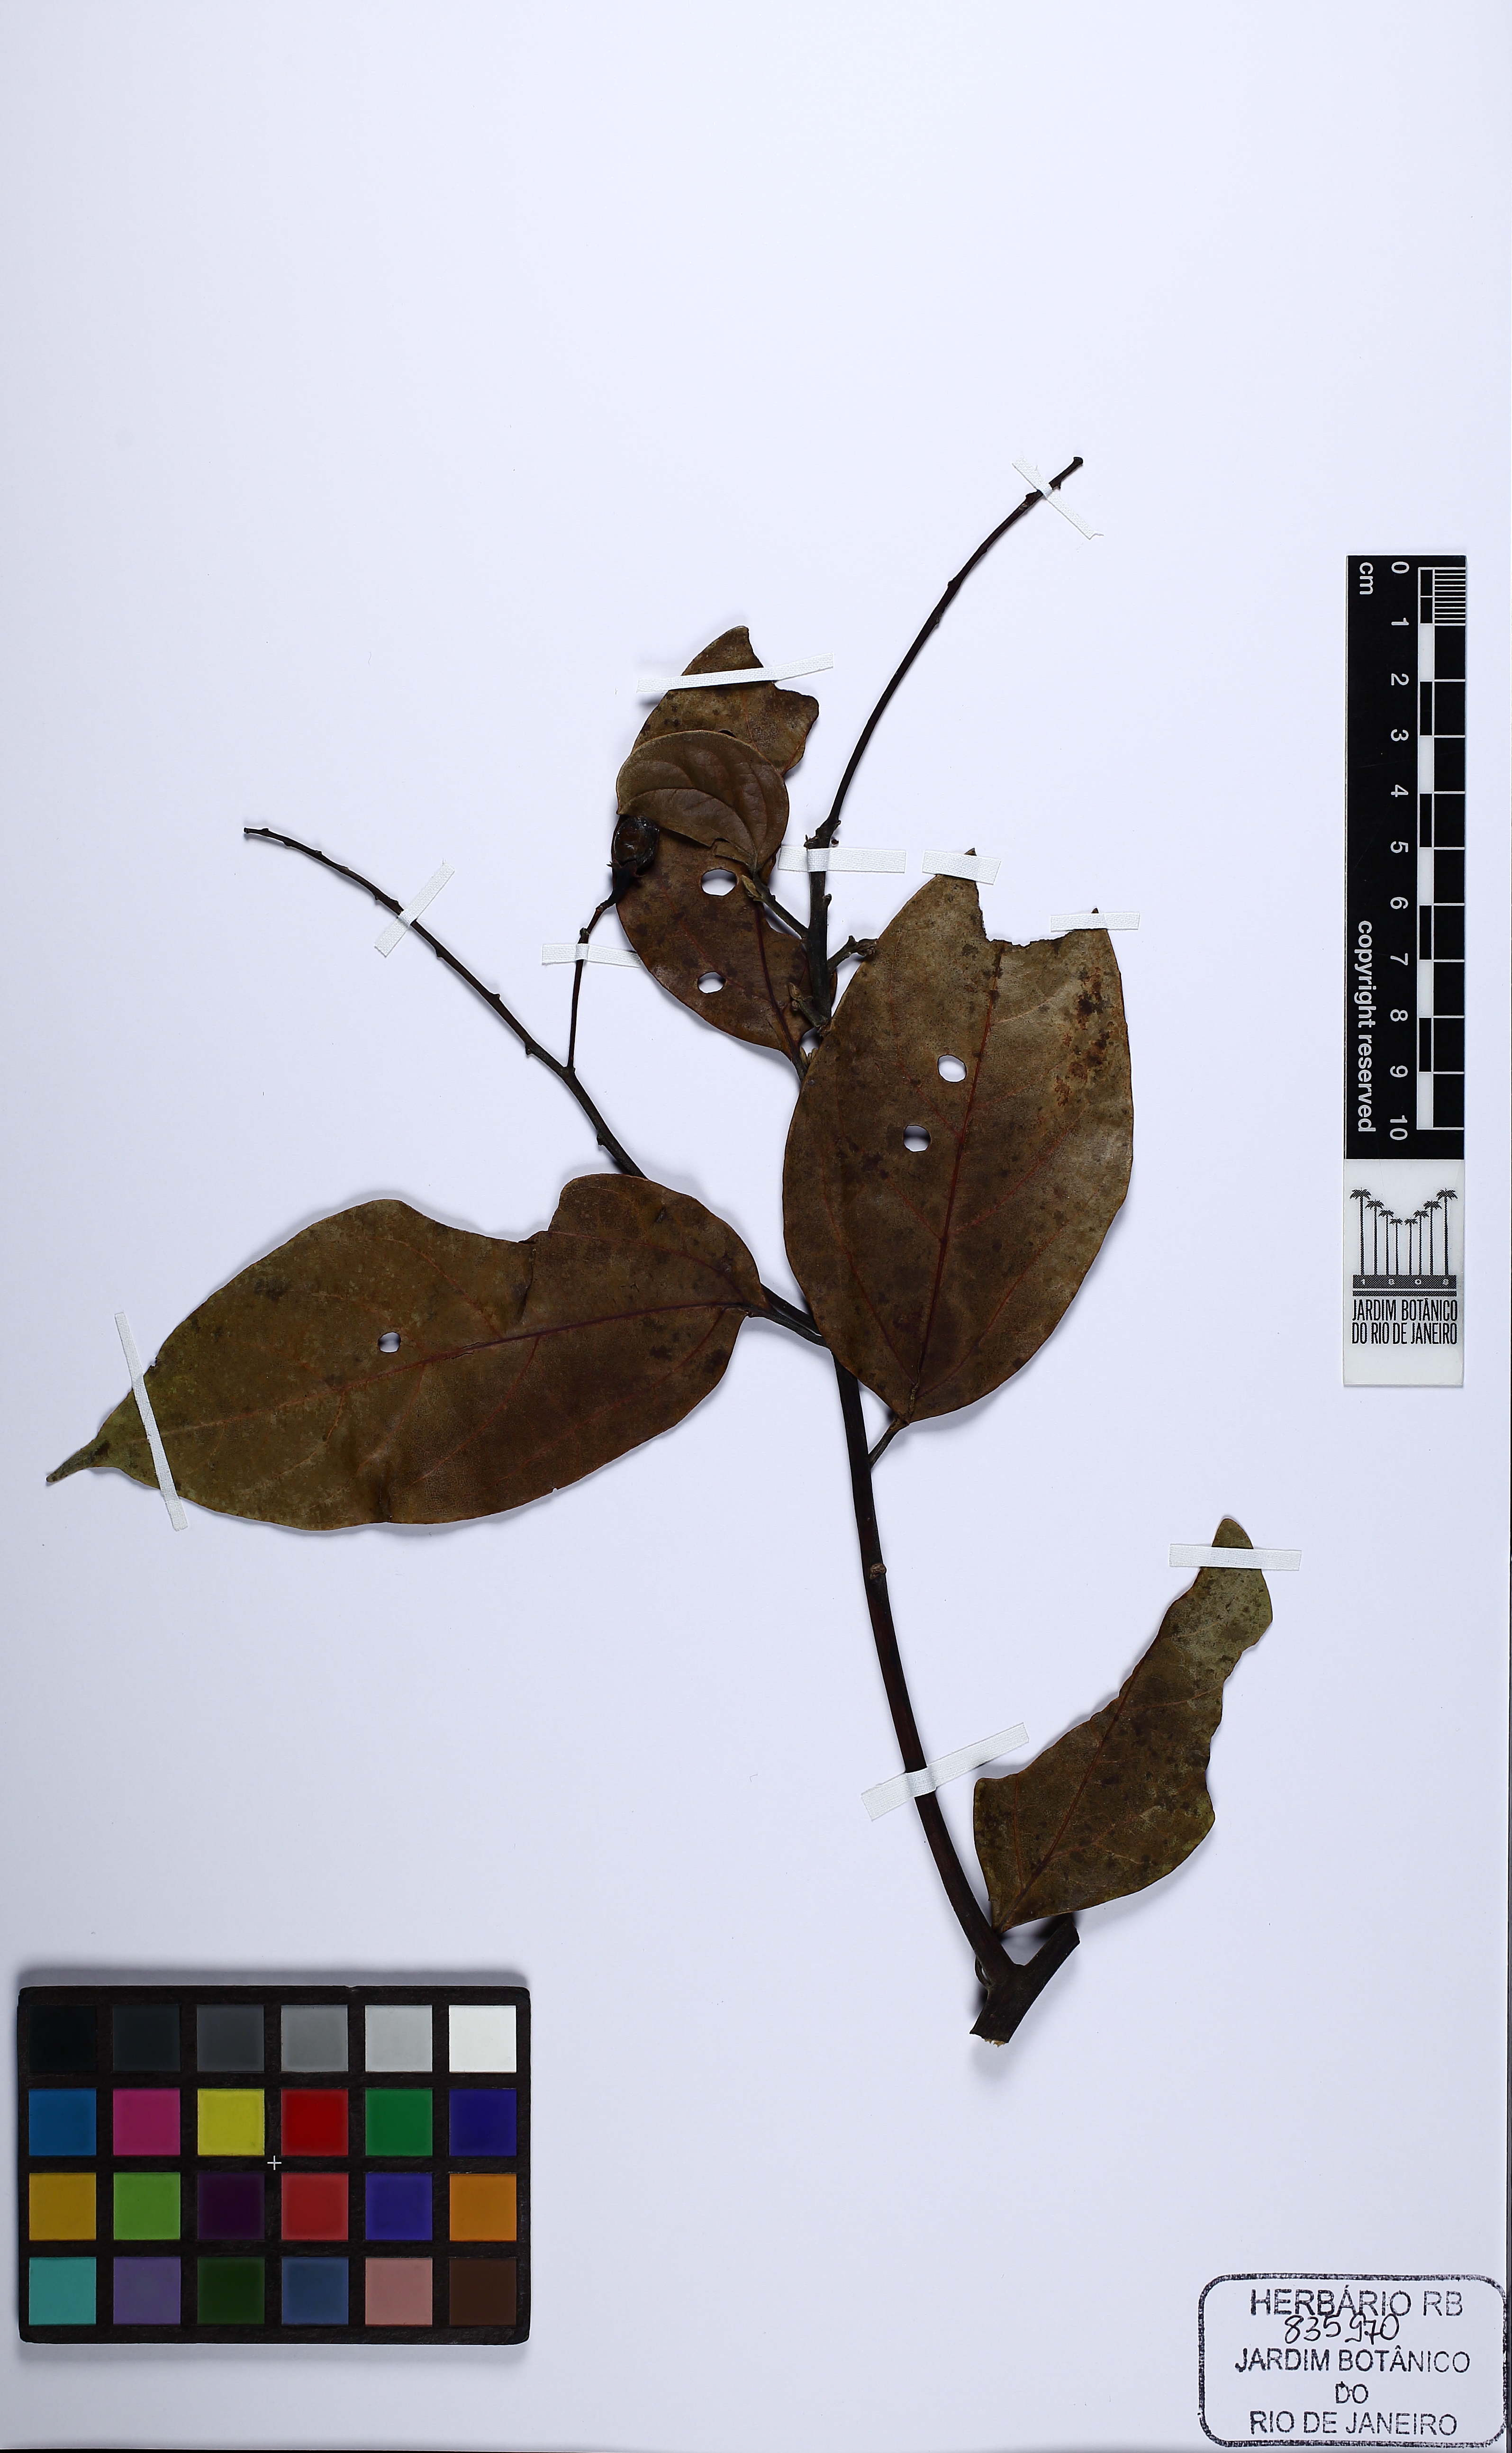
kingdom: Plantae
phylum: Tracheophyta
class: Magnoliopsida
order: Laurales
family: Lauraceae
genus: Aiouea
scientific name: Aiouea montana
